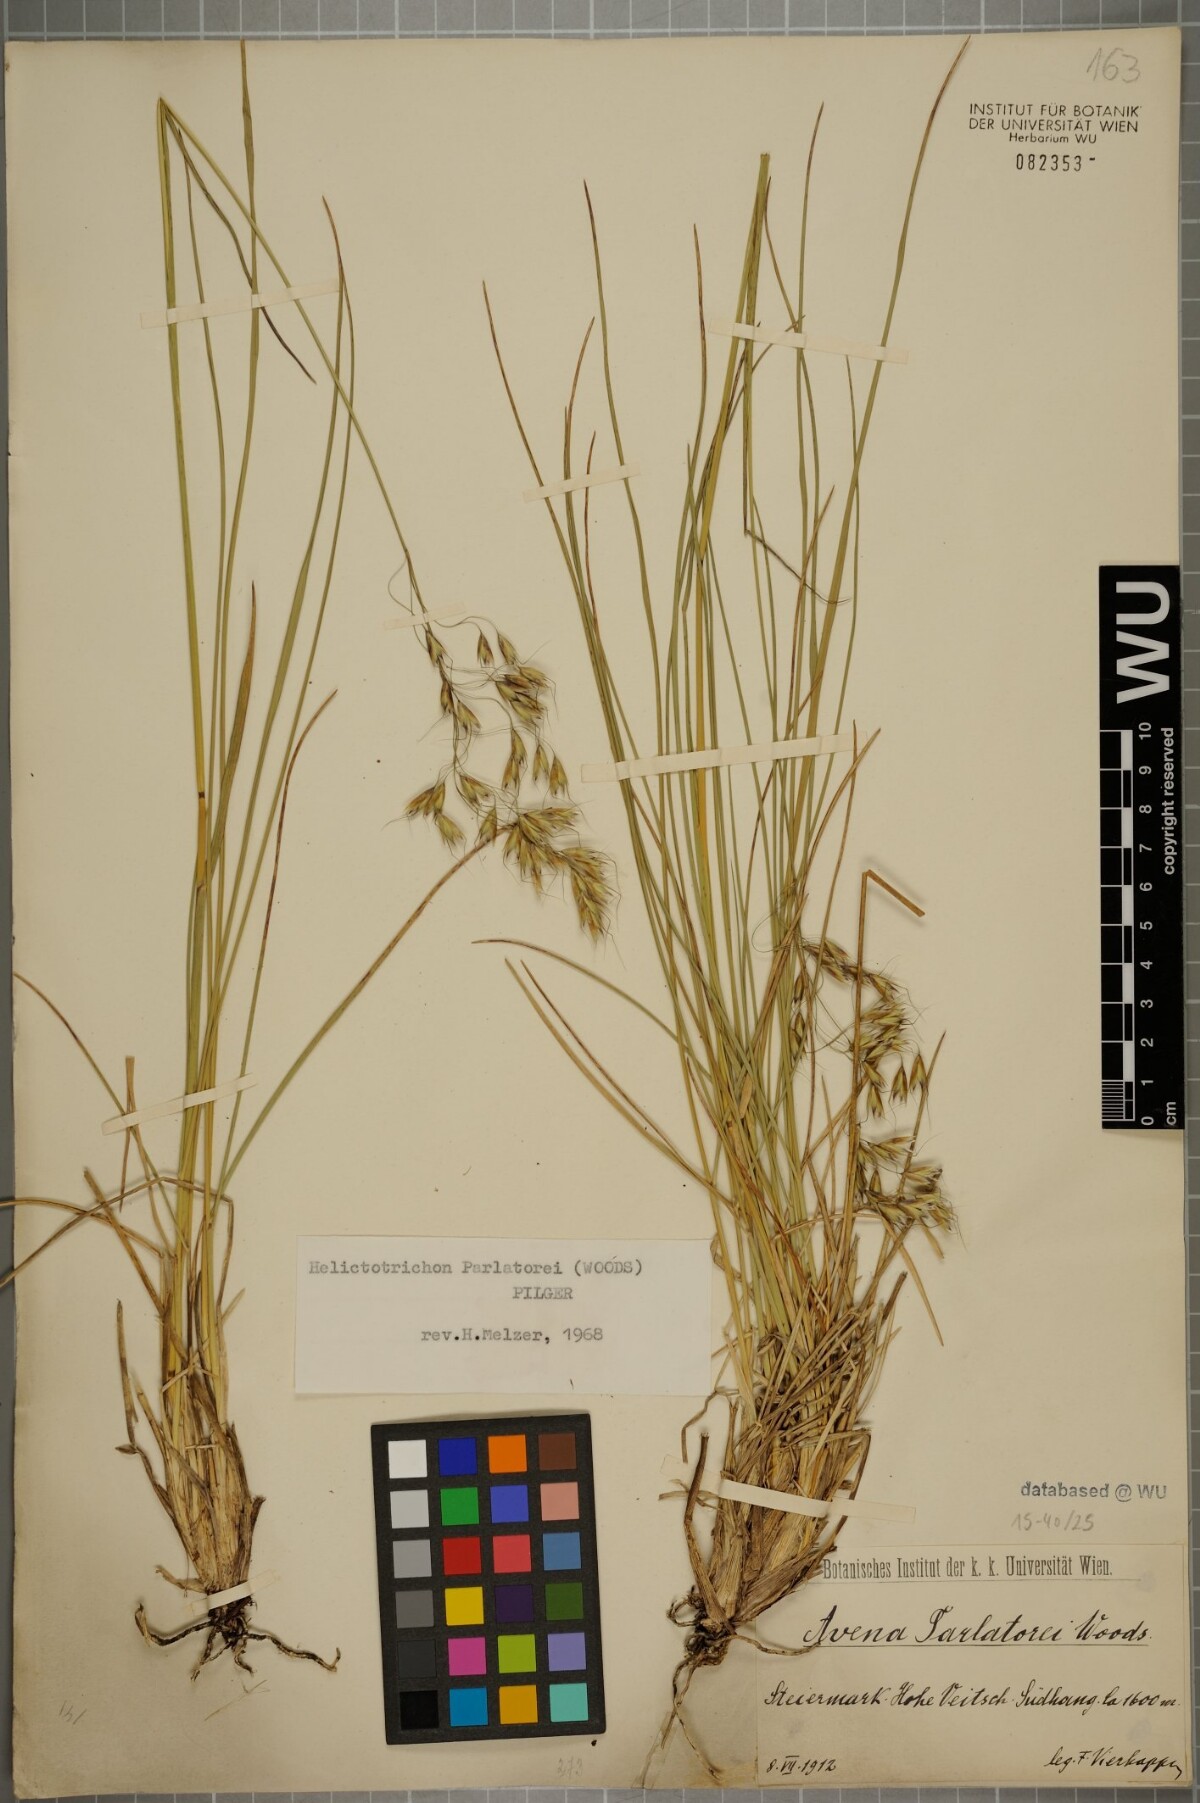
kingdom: Plantae
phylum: Tracheophyta
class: Liliopsida
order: Poales
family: Poaceae
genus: Helictotrichon
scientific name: Helictotrichon parlatorei
